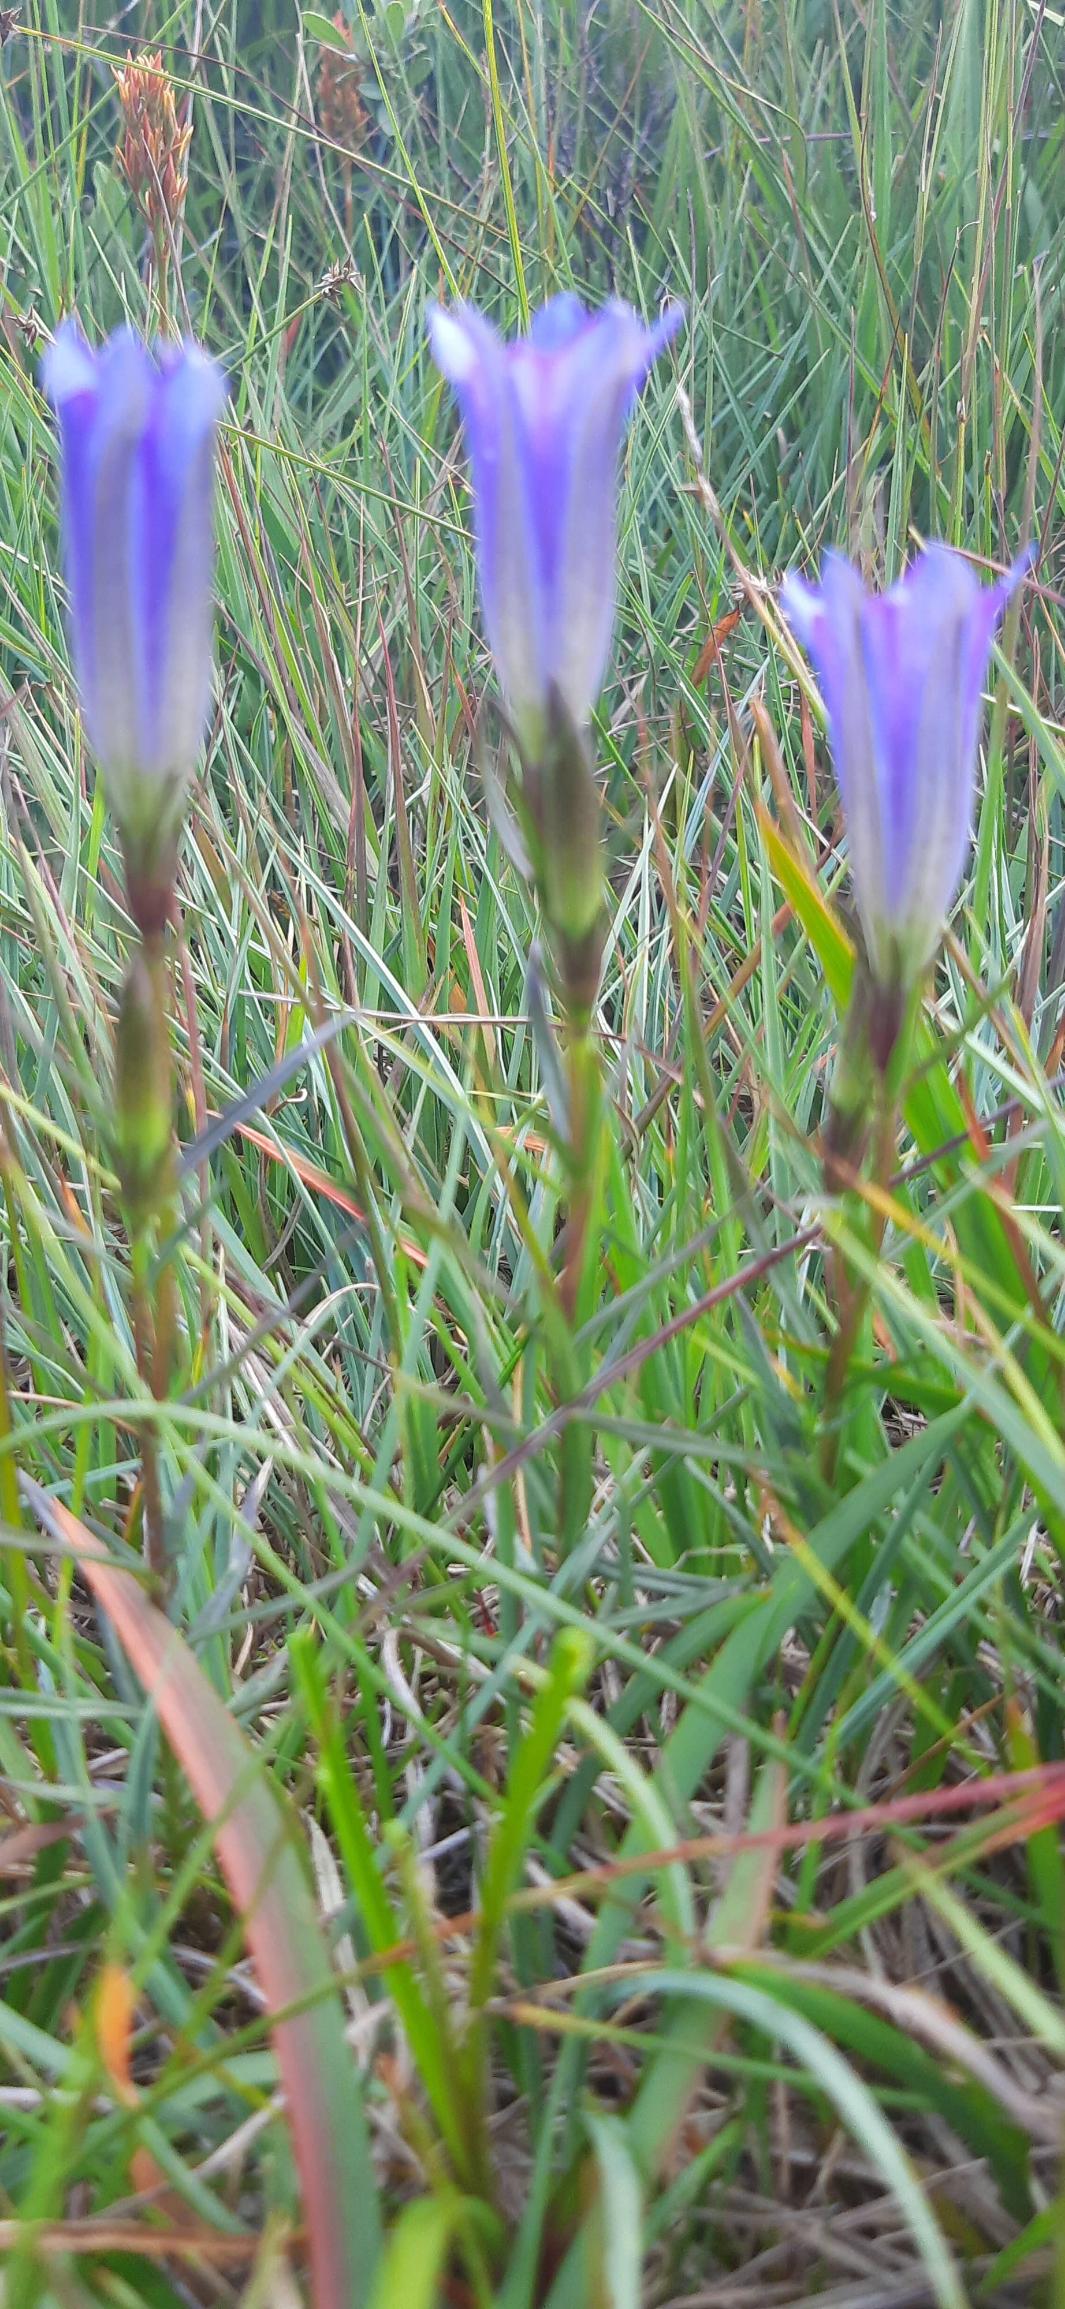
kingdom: Plantae
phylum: Tracheophyta
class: Magnoliopsida
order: Gentianales
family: Gentianaceae
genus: Gentiana
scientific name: Gentiana pneumonanthe
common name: Klokke-ensian
